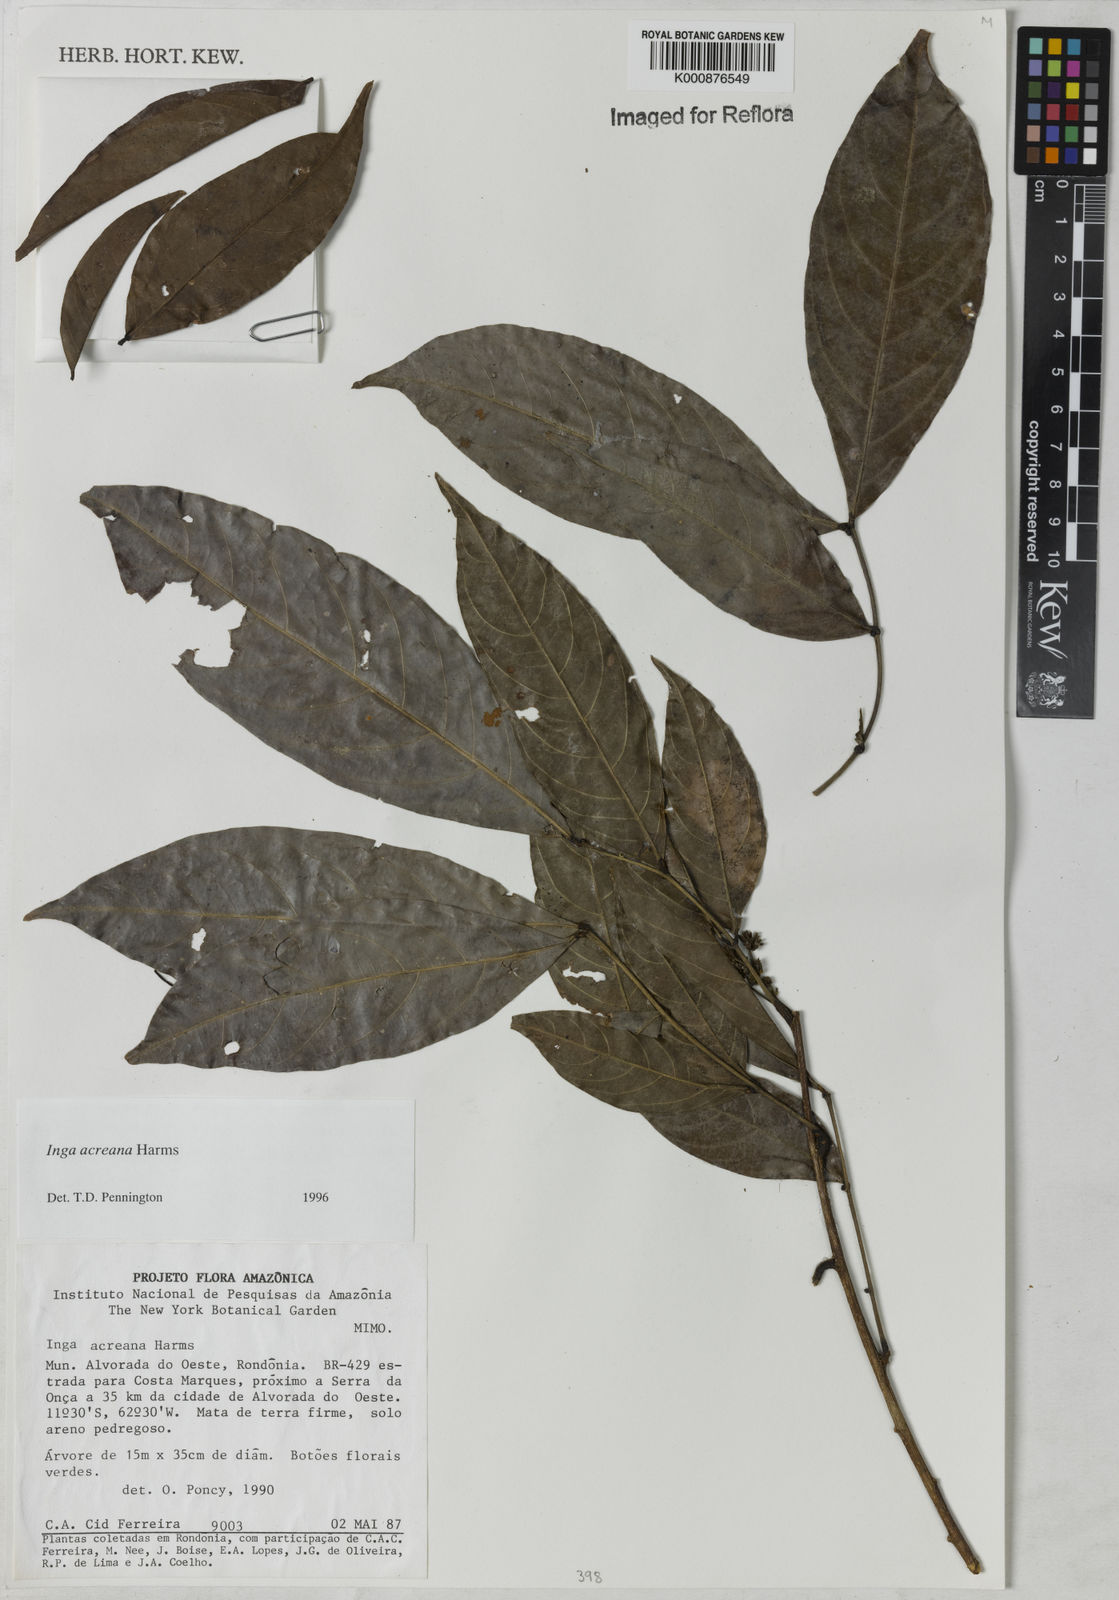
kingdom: Plantae
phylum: Tracheophyta
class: Magnoliopsida
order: Fabales
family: Fabaceae
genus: Inga
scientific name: Inga acreana
